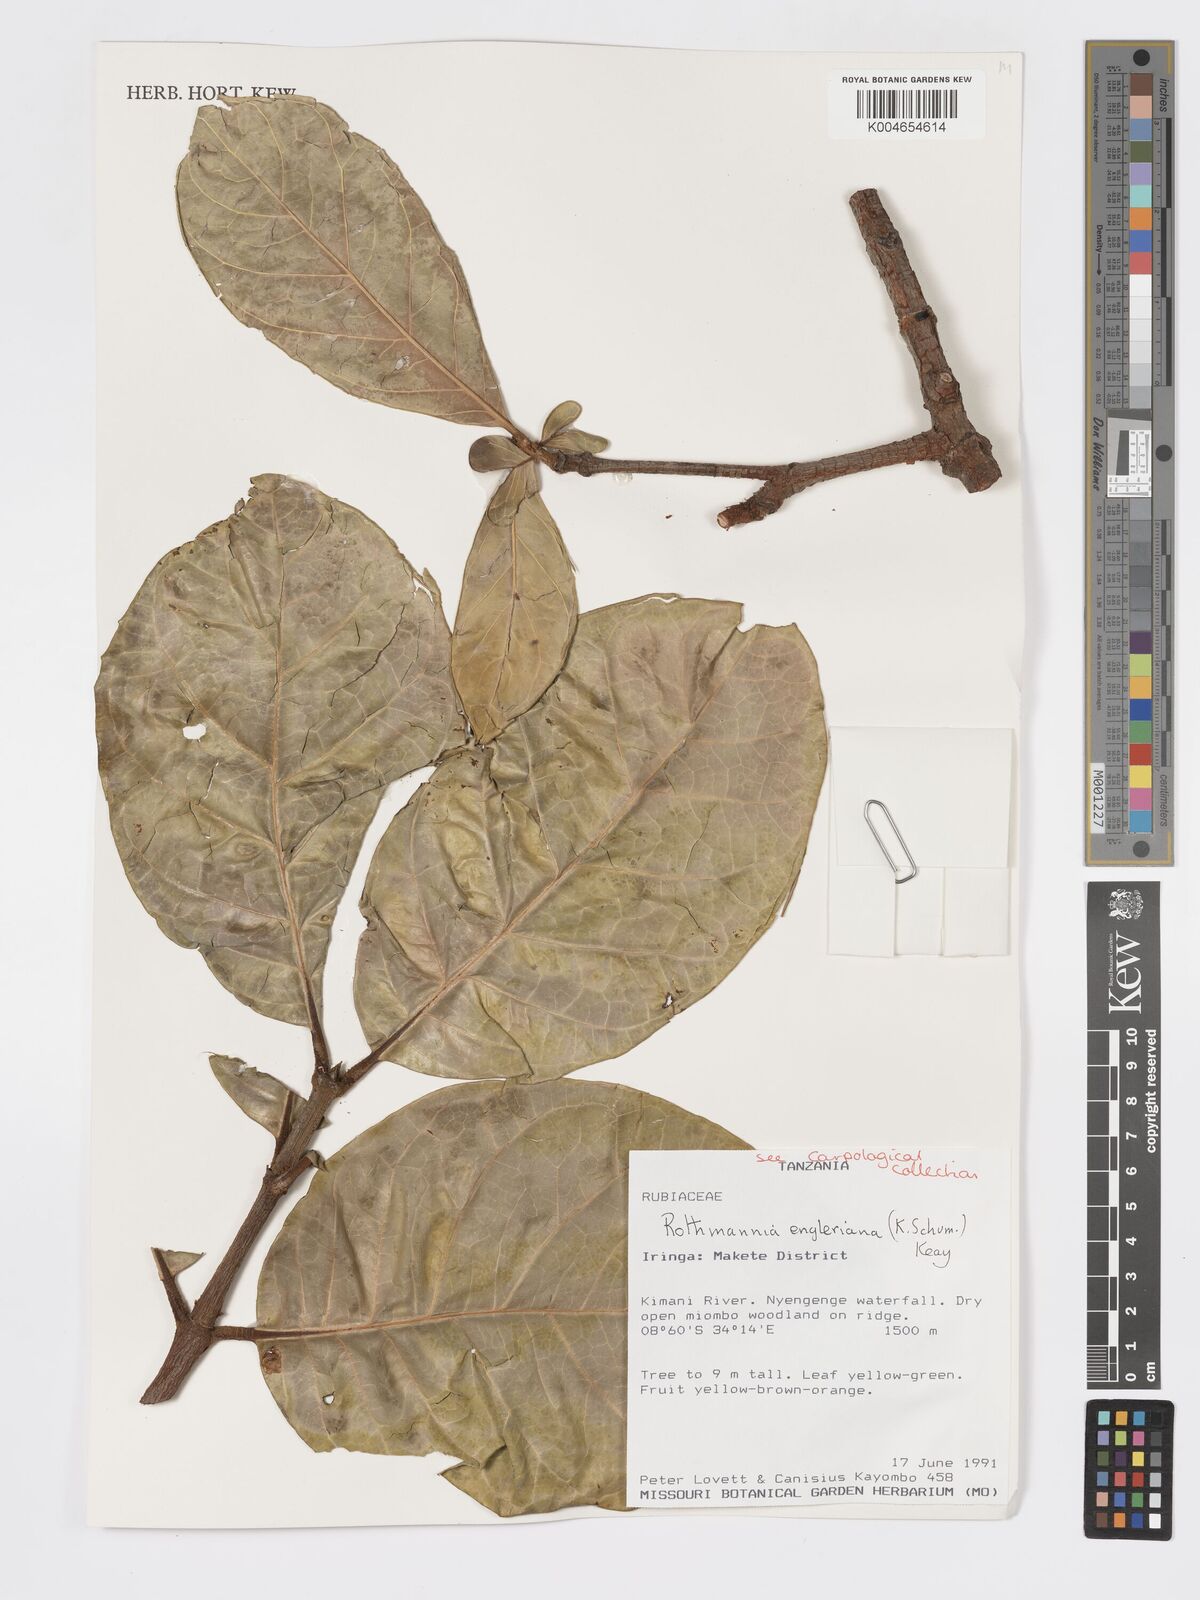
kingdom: Plantae
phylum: Tracheophyta
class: Magnoliopsida
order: Gentianales
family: Rubiaceae
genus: Rothmannia
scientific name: Rothmannia engleriana
